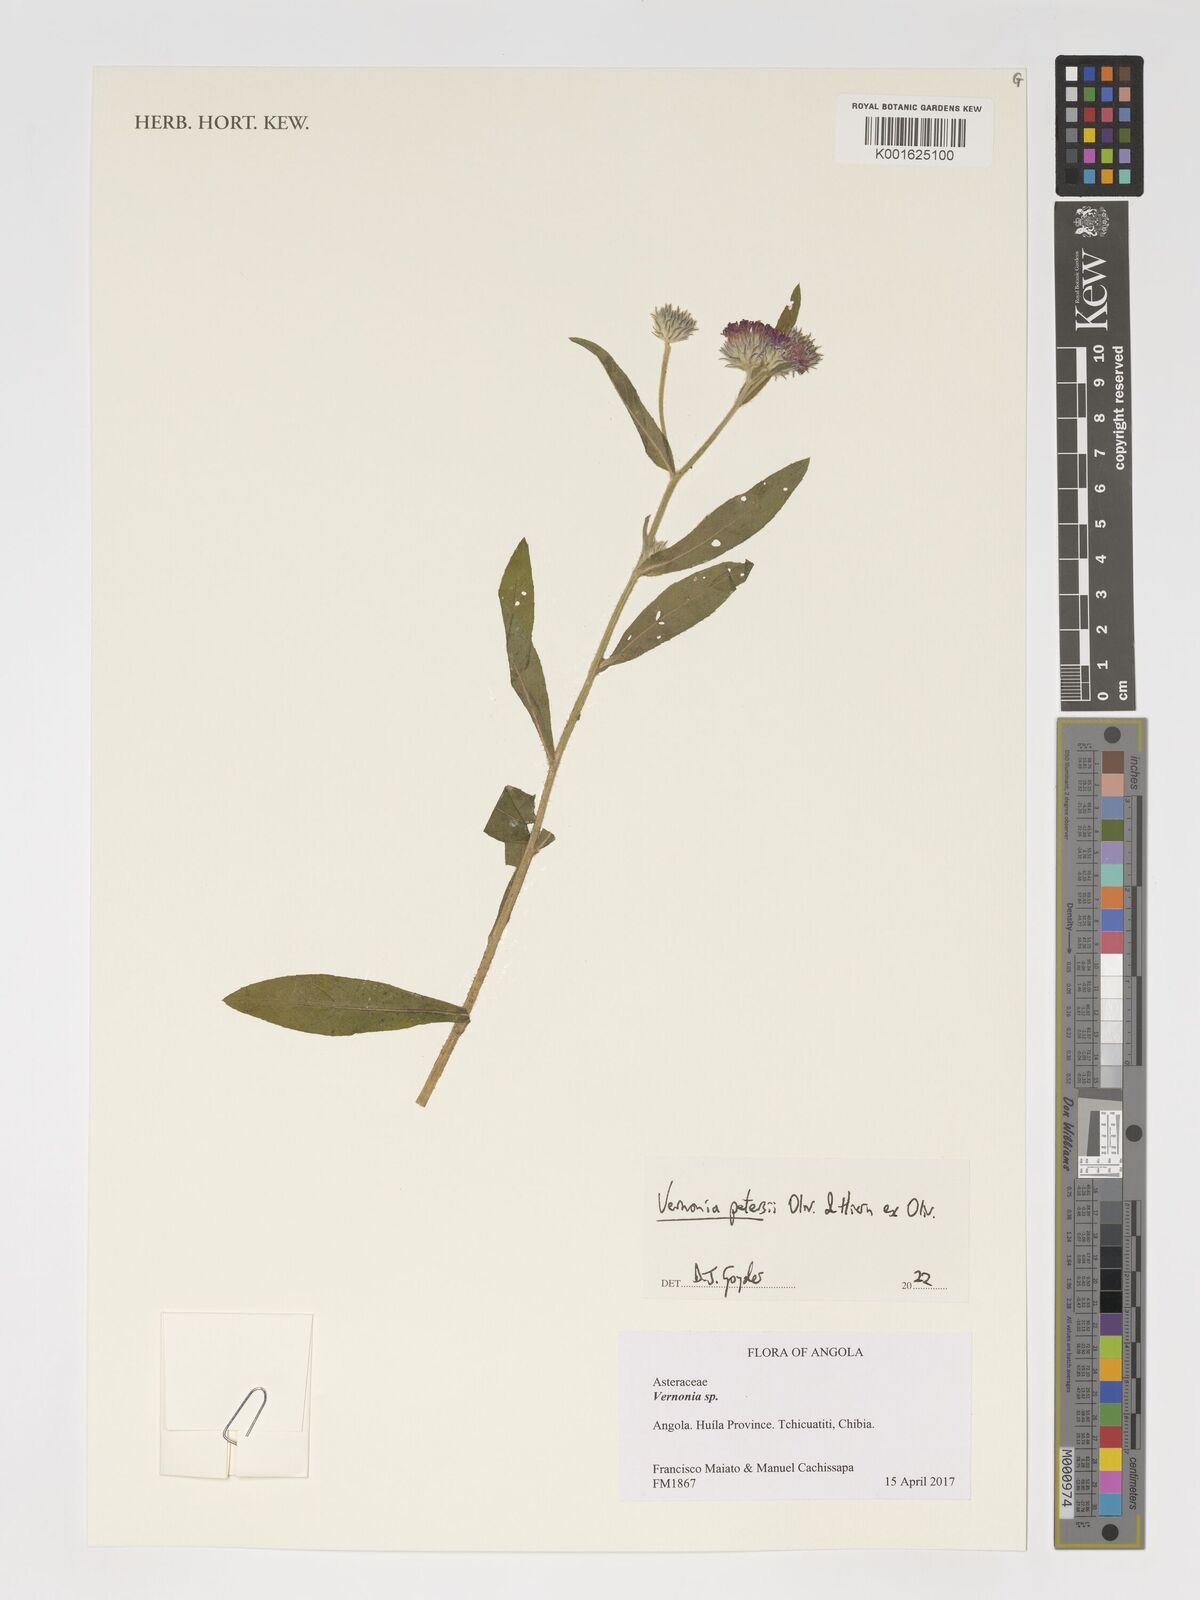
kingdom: Plantae
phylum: Tracheophyta
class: Magnoliopsida
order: Asterales
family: Asteraceae
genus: Vernoniastrum
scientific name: Vernoniastrum latifolium
